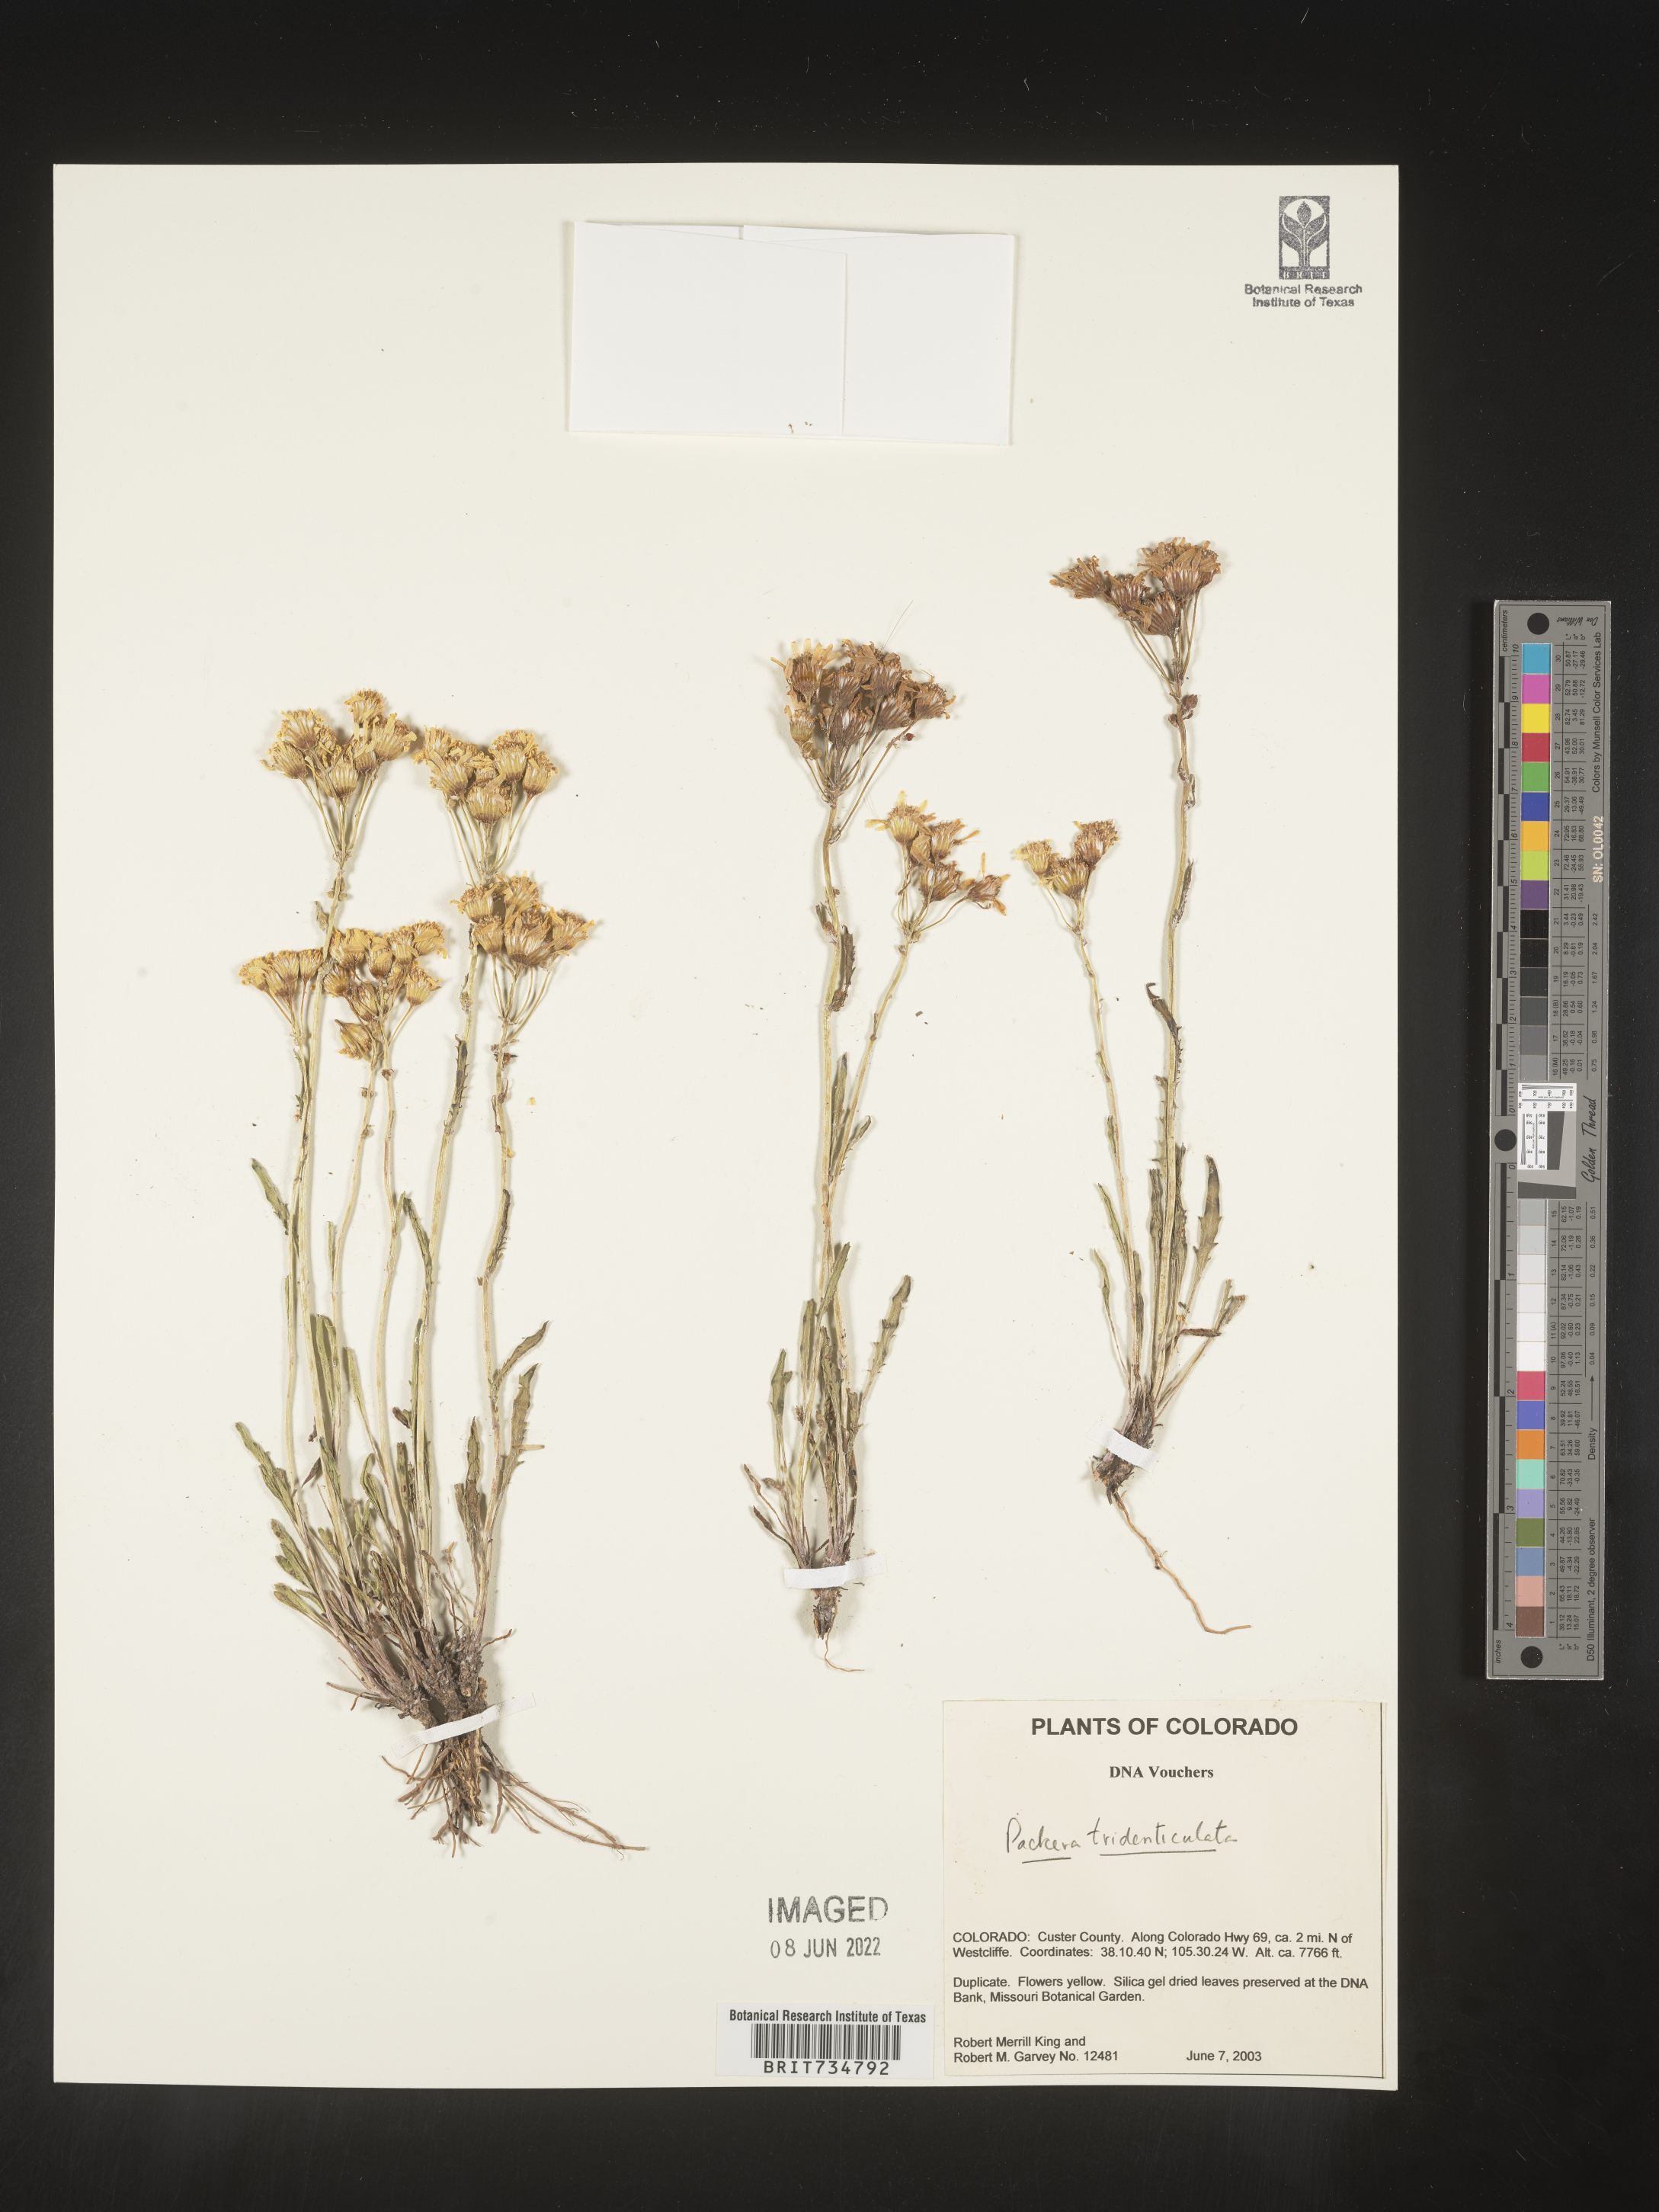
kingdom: Plantae
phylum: Tracheophyta
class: Magnoliopsida
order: Asterales
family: Asteraceae
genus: Packera
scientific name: Packera thurberi
